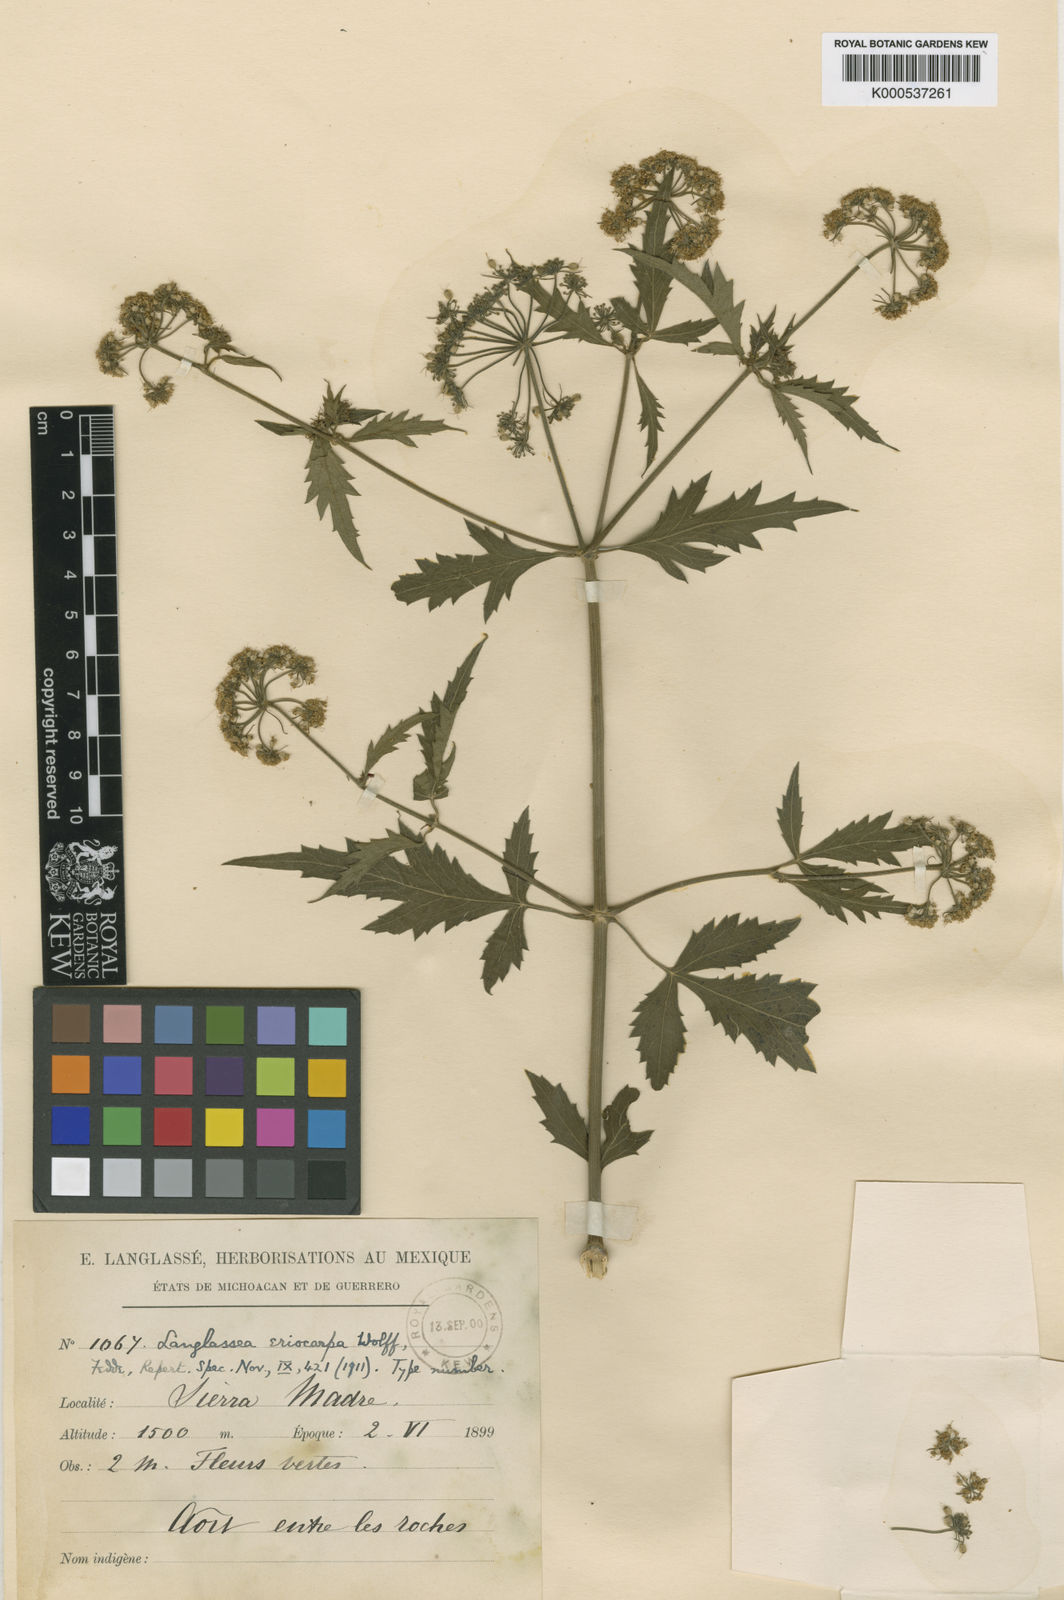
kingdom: Plantae
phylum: Tracheophyta
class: Magnoliopsida
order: Apiales
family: Apiaceae
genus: Prionosciadium
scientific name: Prionosciadium nelsonii
